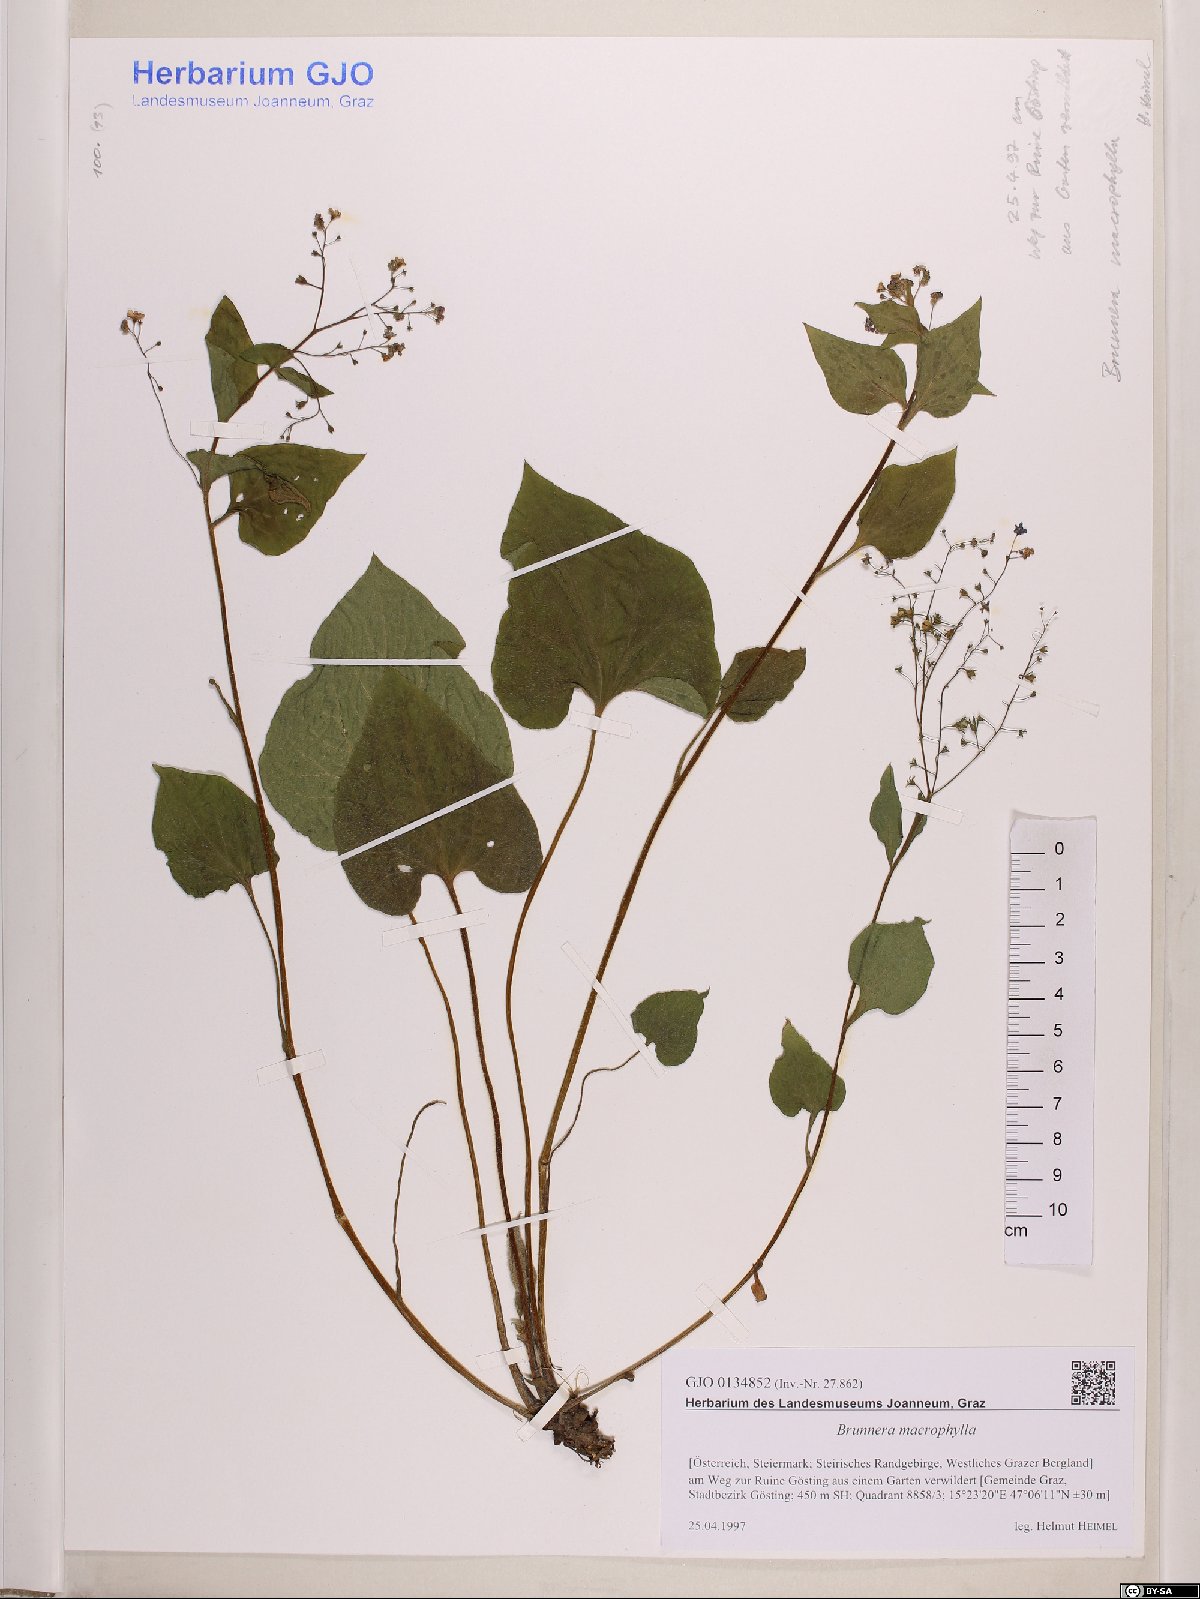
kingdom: Plantae
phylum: Tracheophyta
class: Magnoliopsida
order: Boraginales
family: Boraginaceae
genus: Brunnera
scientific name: Brunnera macrophylla
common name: Great forget-me-not
